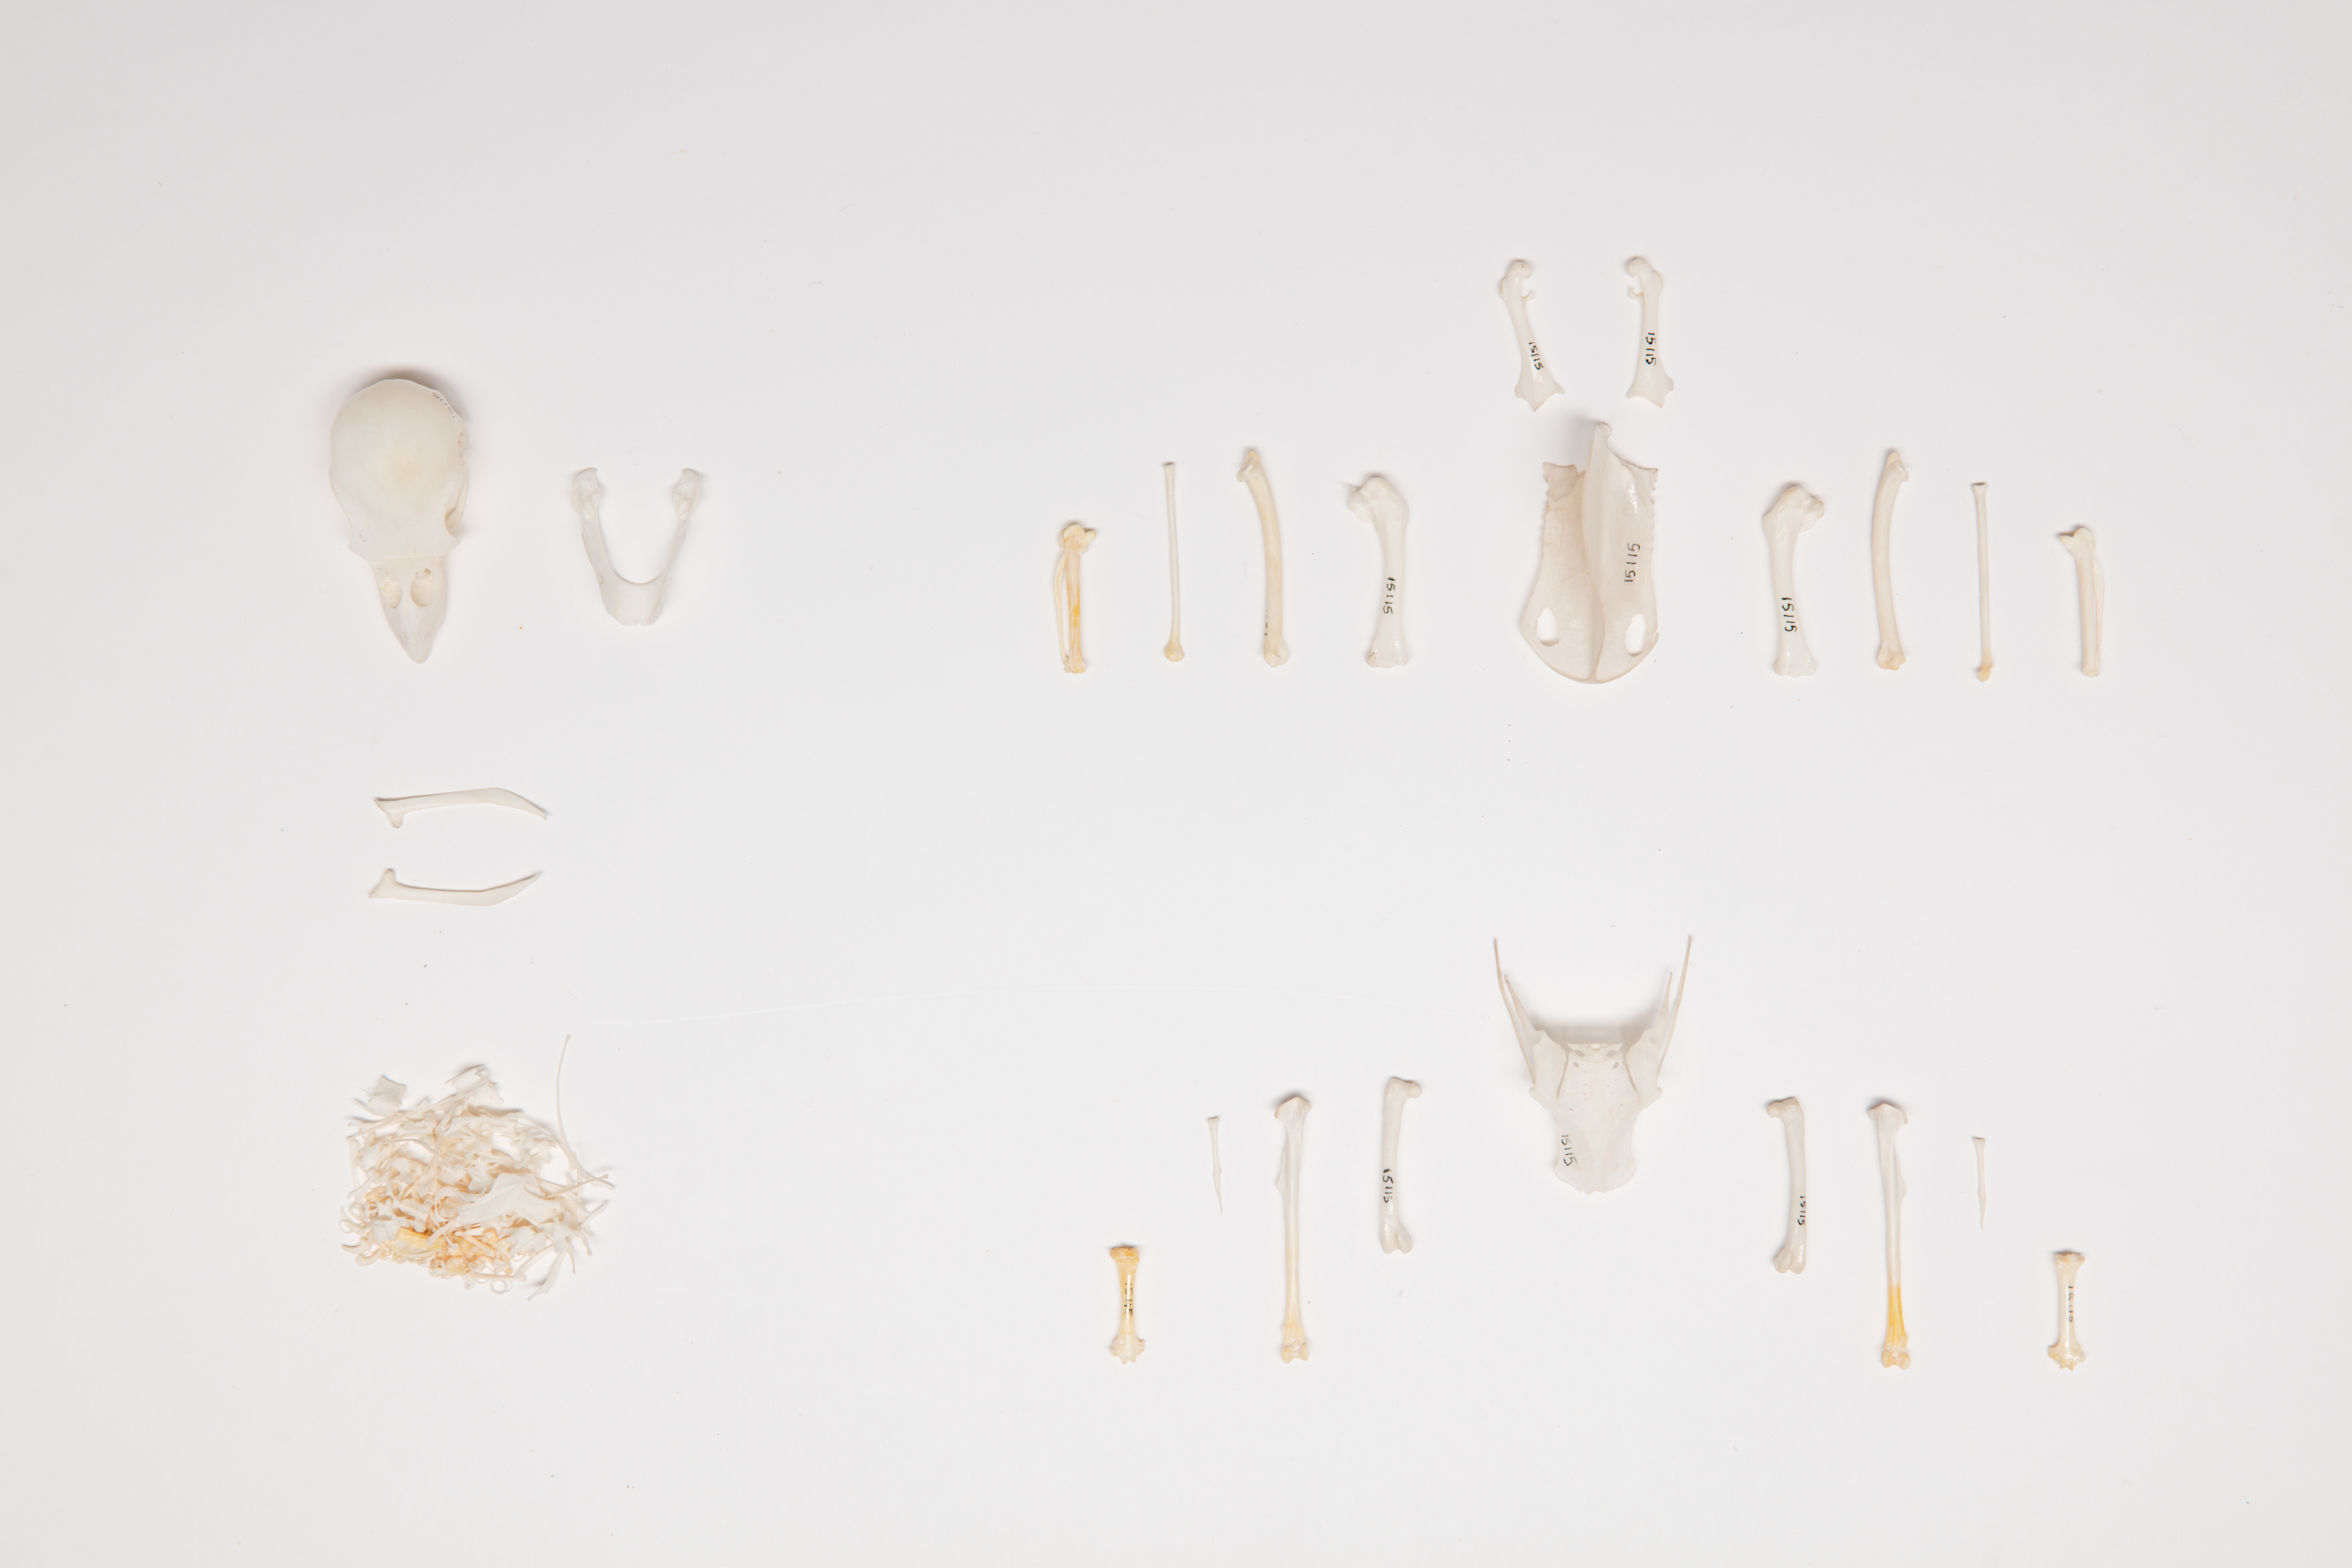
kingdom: Animalia
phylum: Chordata
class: Aves
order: Psittaciformes
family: Psittacidae
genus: Platycercus
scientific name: Platycercus eximius
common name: Eastern rosella
